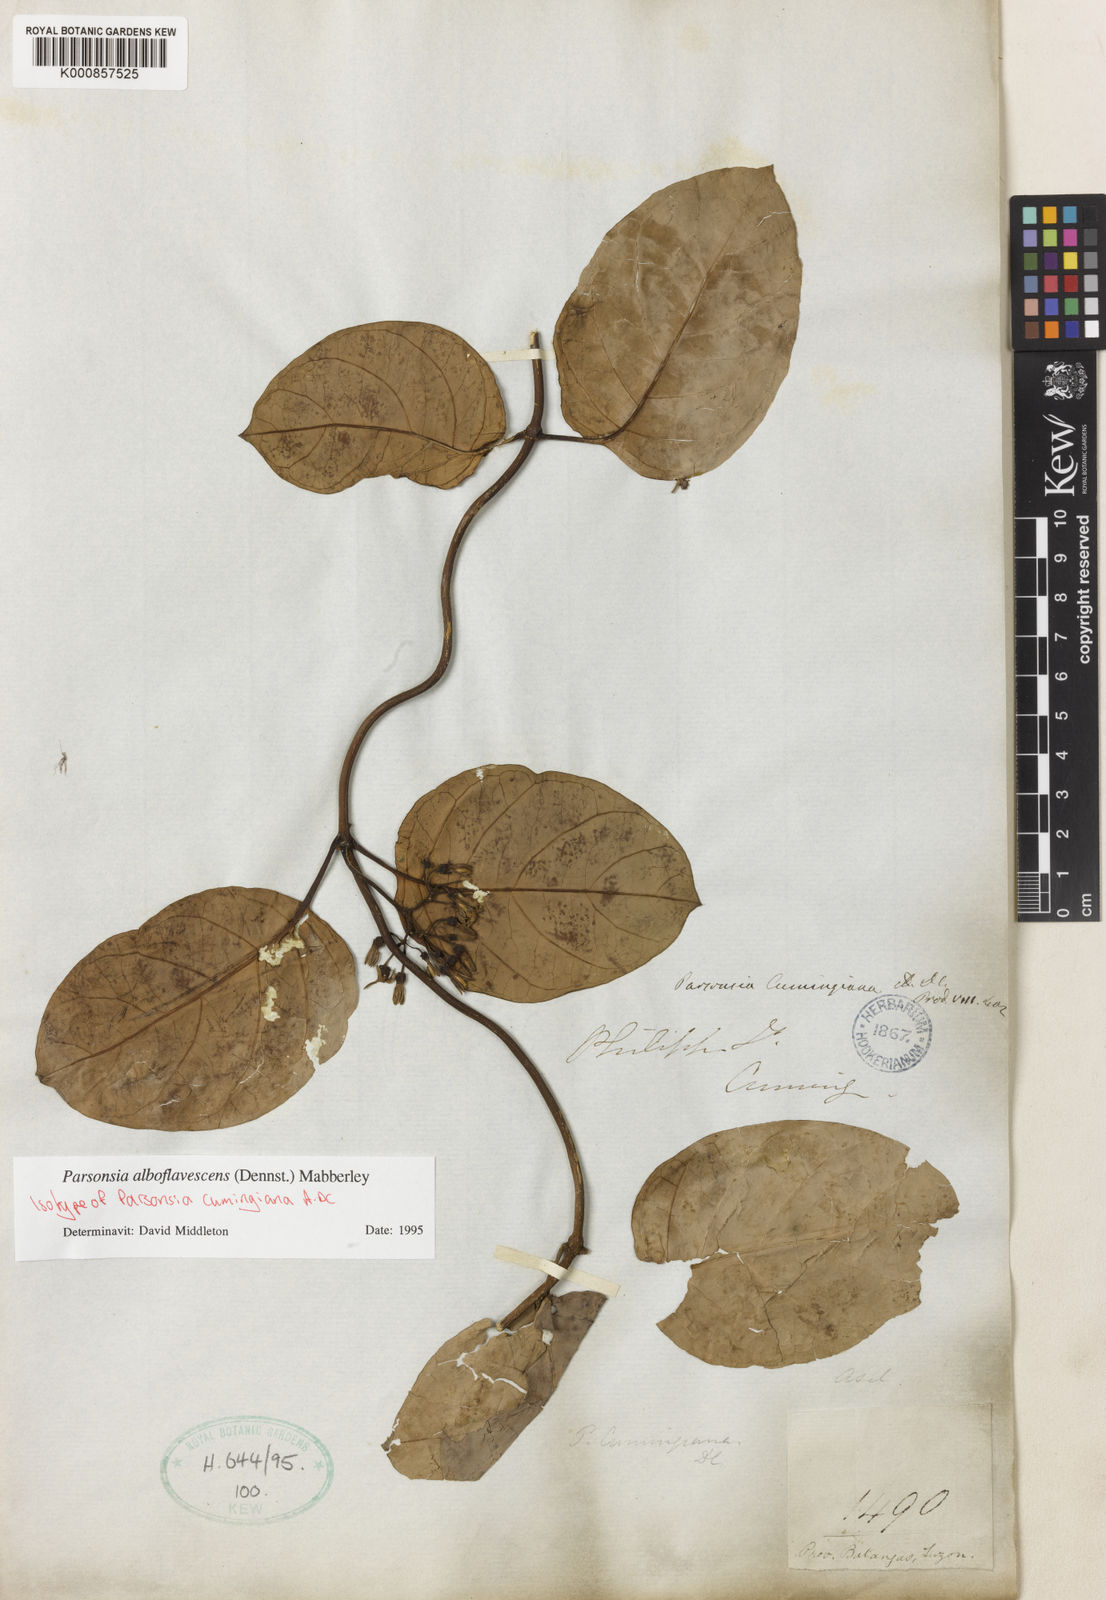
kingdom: Plantae
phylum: Tracheophyta
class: Magnoliopsida
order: Gentianales
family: Apocynaceae
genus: Parsonsia
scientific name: Parsonsia alboflavescens
